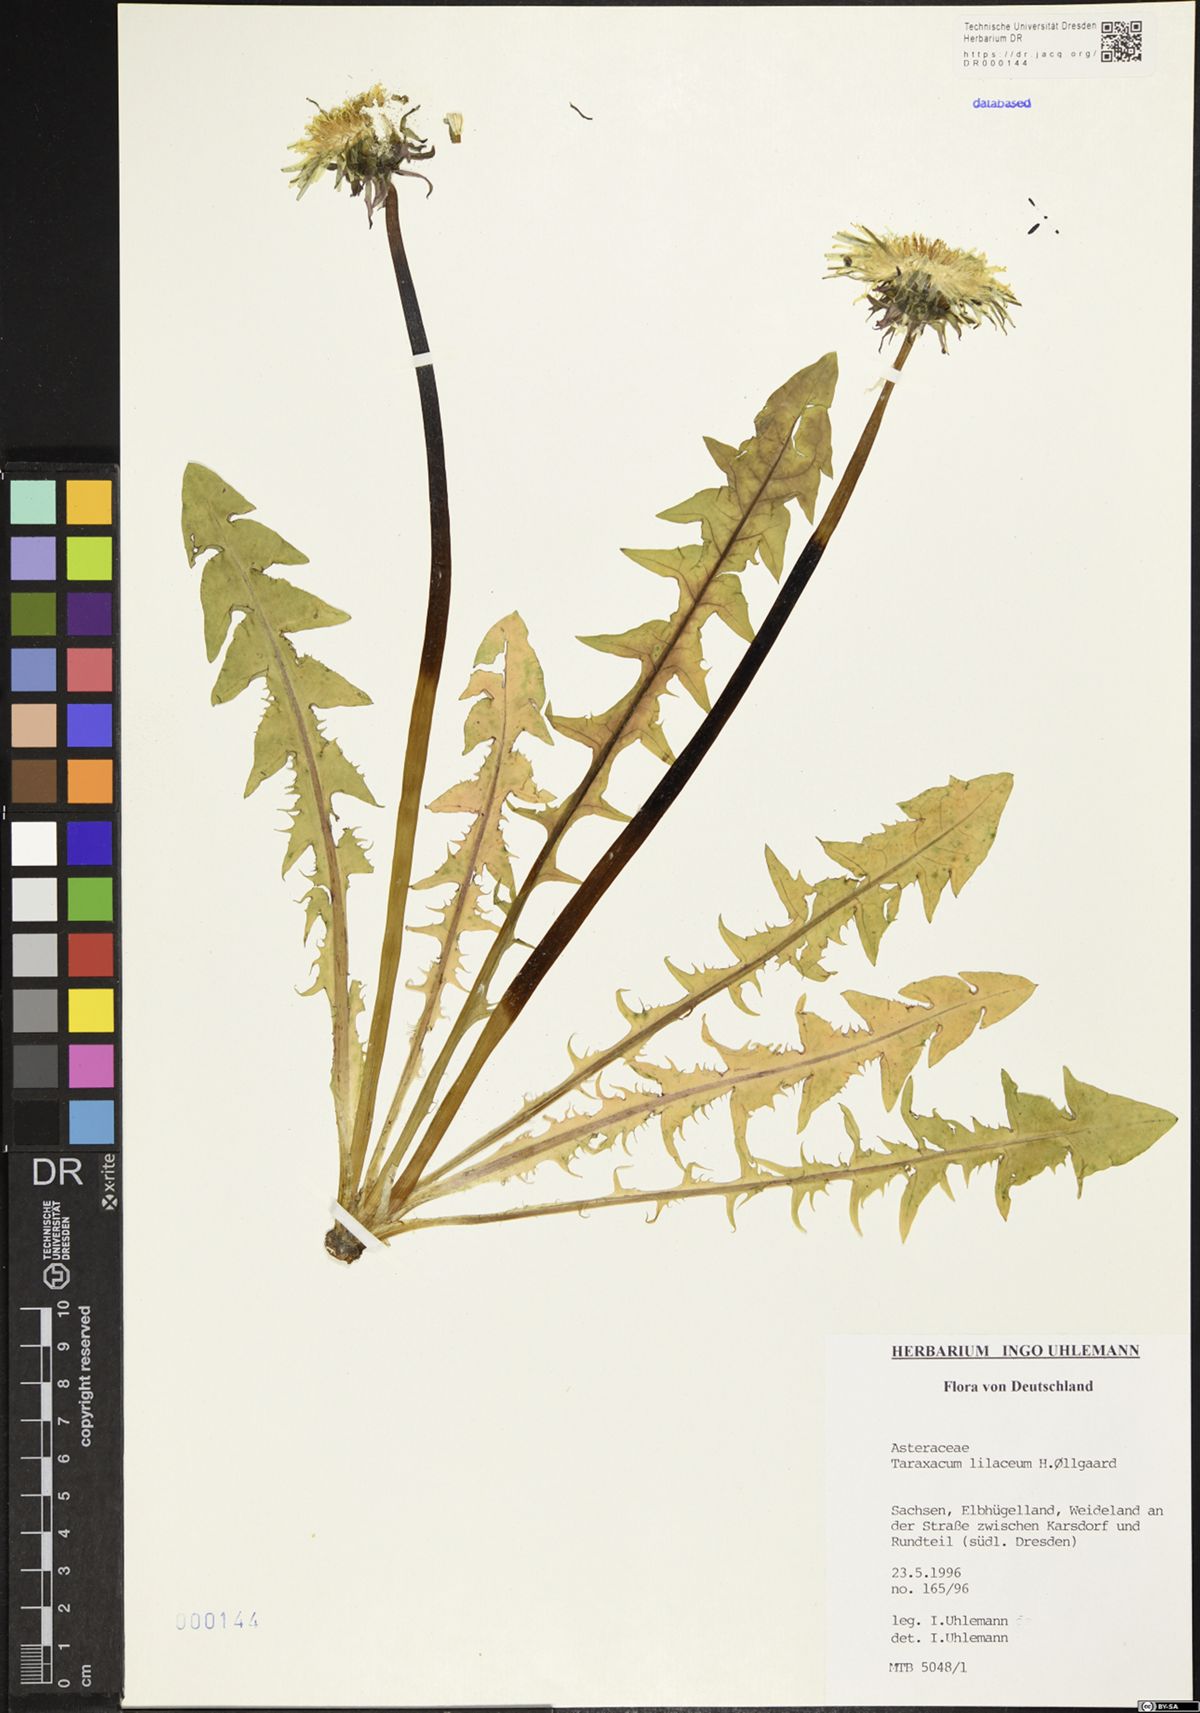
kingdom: Plantae
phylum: Tracheophyta
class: Magnoliopsida
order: Asterales
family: Asteraceae
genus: Taraxacum
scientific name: Taraxacum floccosum
